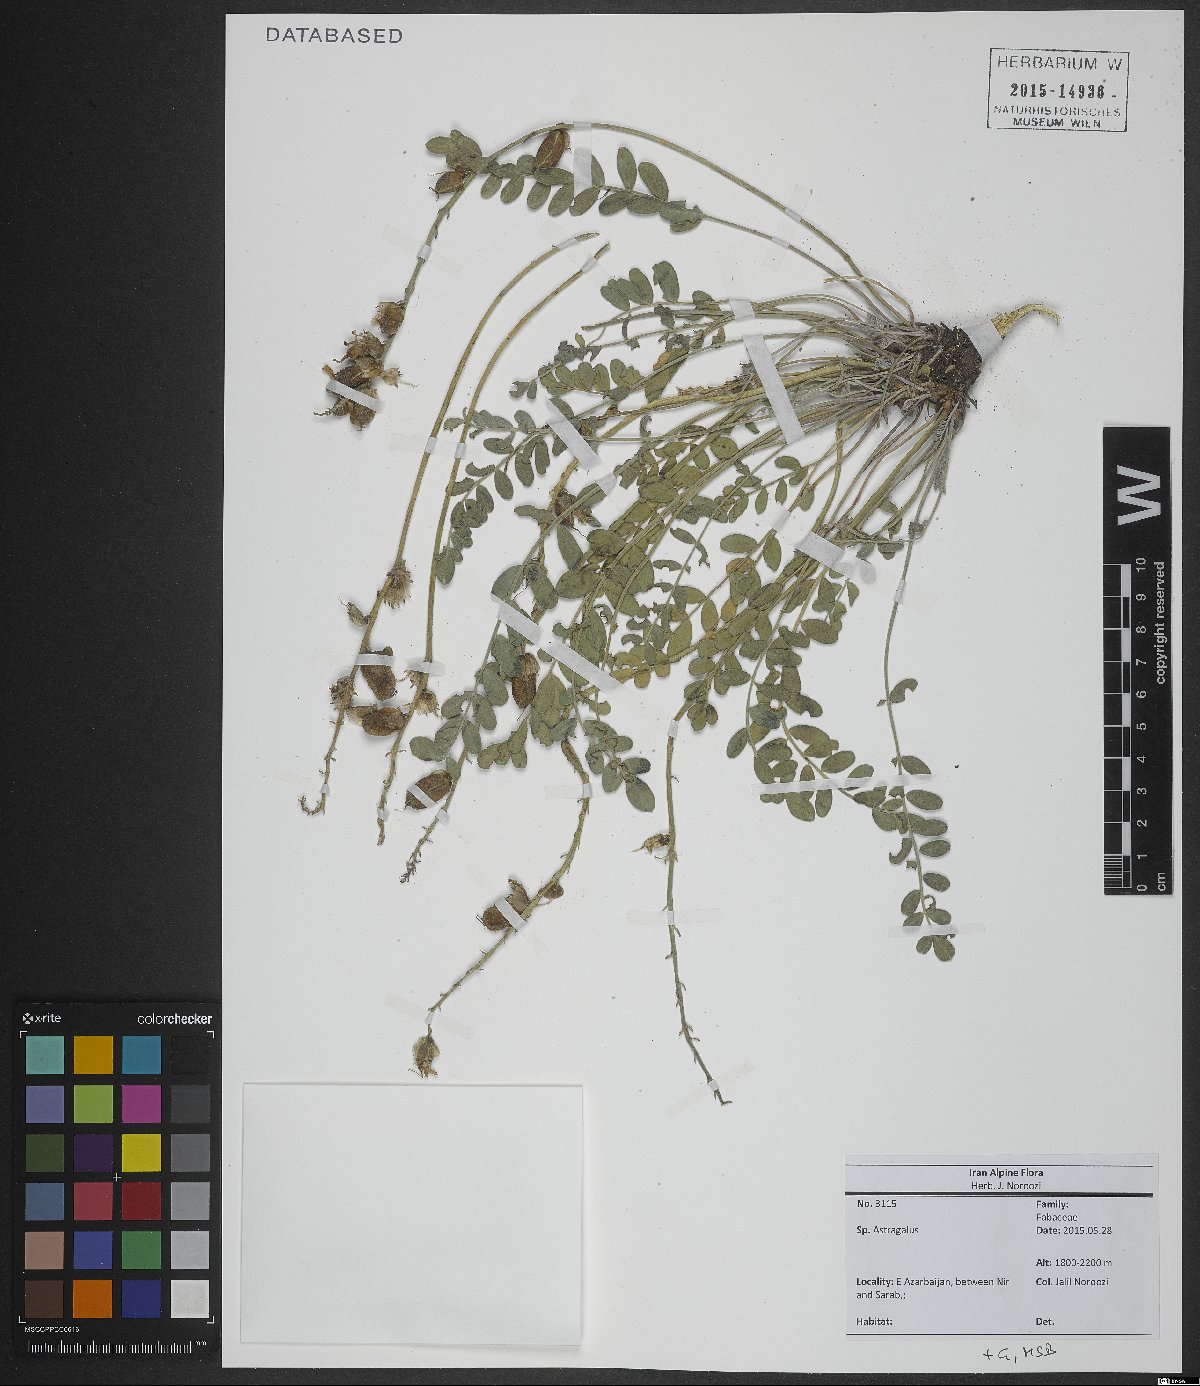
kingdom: Plantae
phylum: Tracheophyta
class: Magnoliopsida
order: Fabales
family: Fabaceae
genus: Astragalus
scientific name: Astragalus
